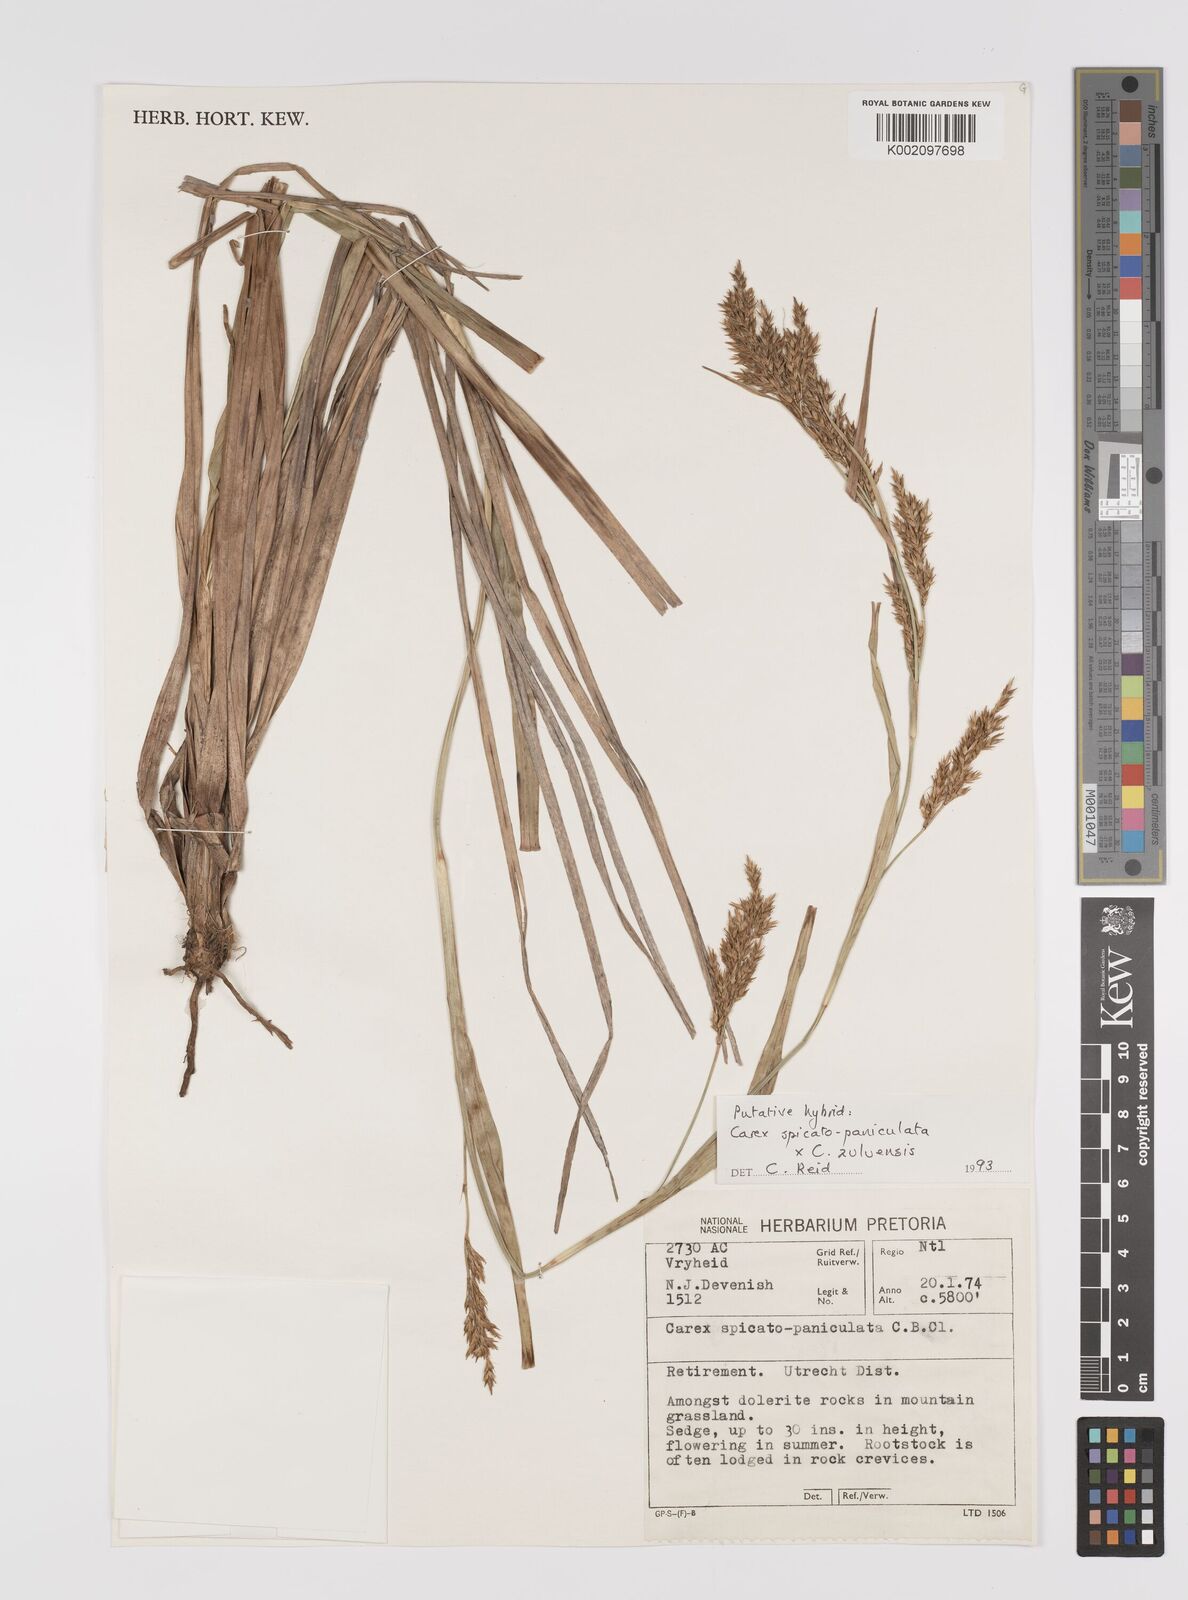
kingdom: Plantae
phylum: Tracheophyta
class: Liliopsida
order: Poales
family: Cyperaceae
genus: Carex
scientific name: Carex
